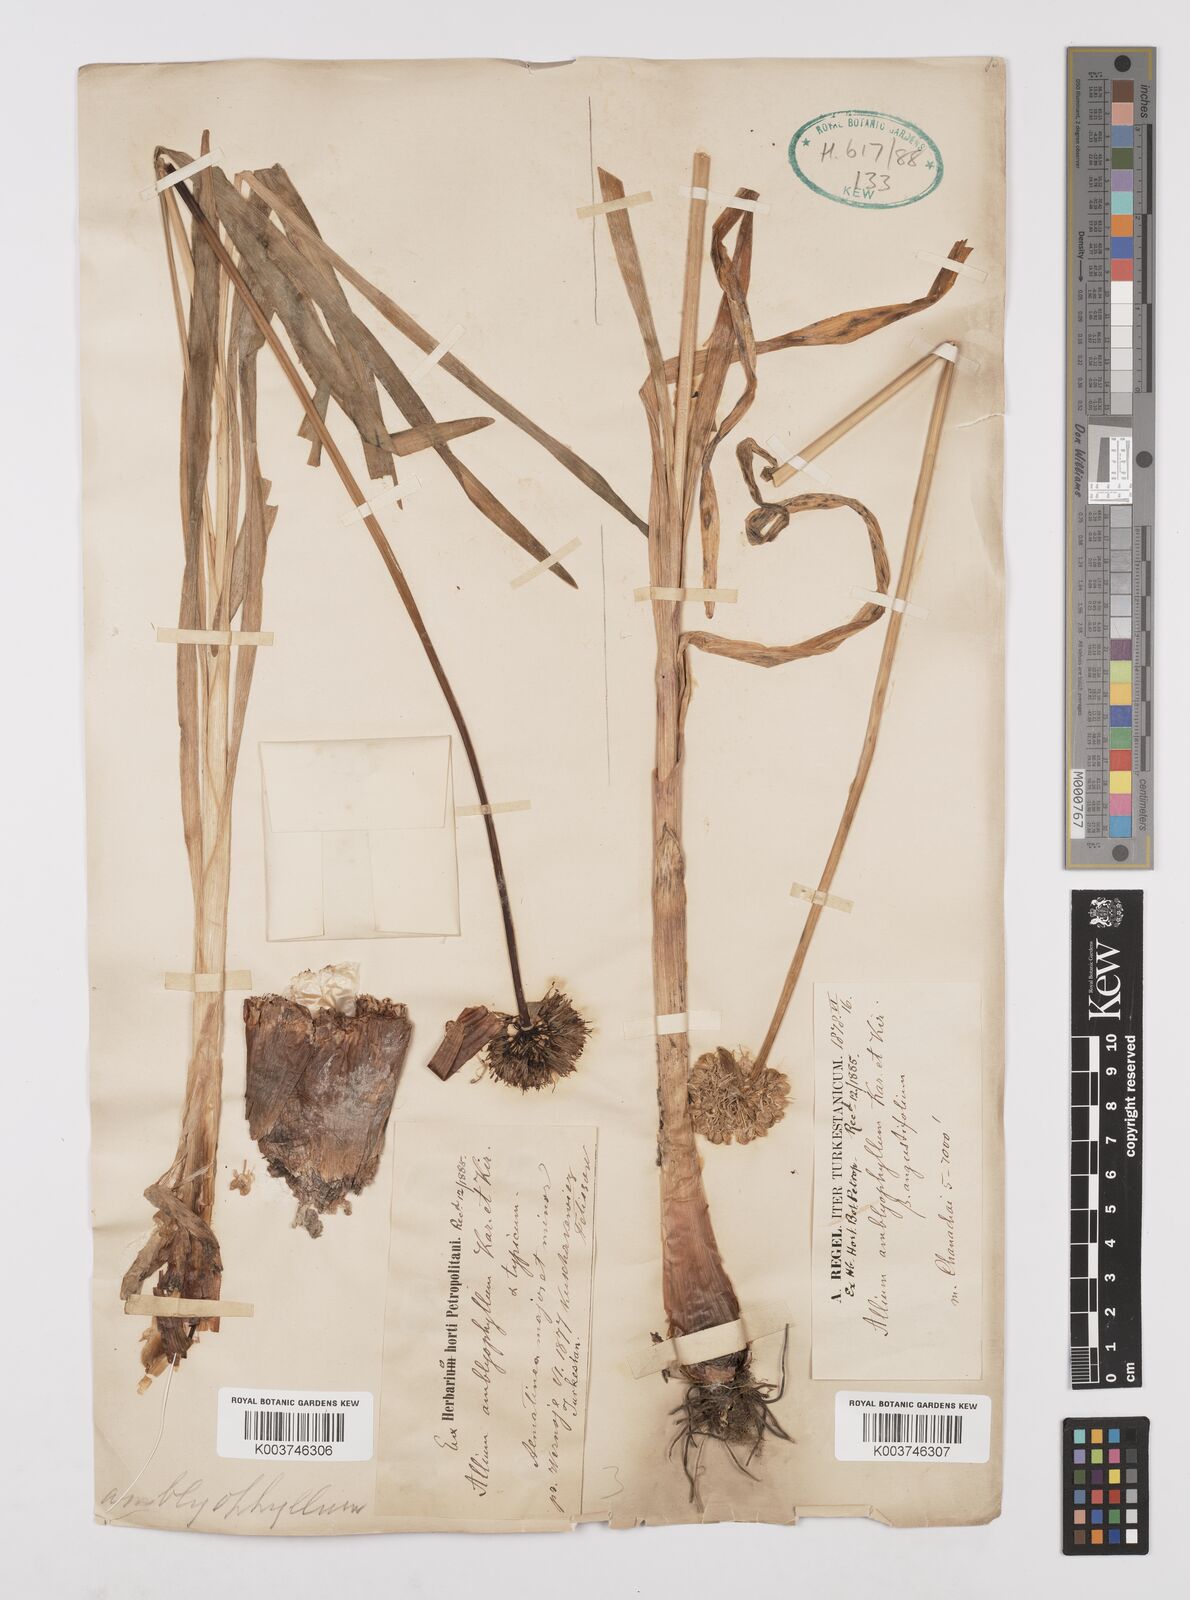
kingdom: Plantae
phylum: Tracheophyta
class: Liliopsida
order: Asparagales
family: Amaryllidaceae
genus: Allium
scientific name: Allium platyspathum
